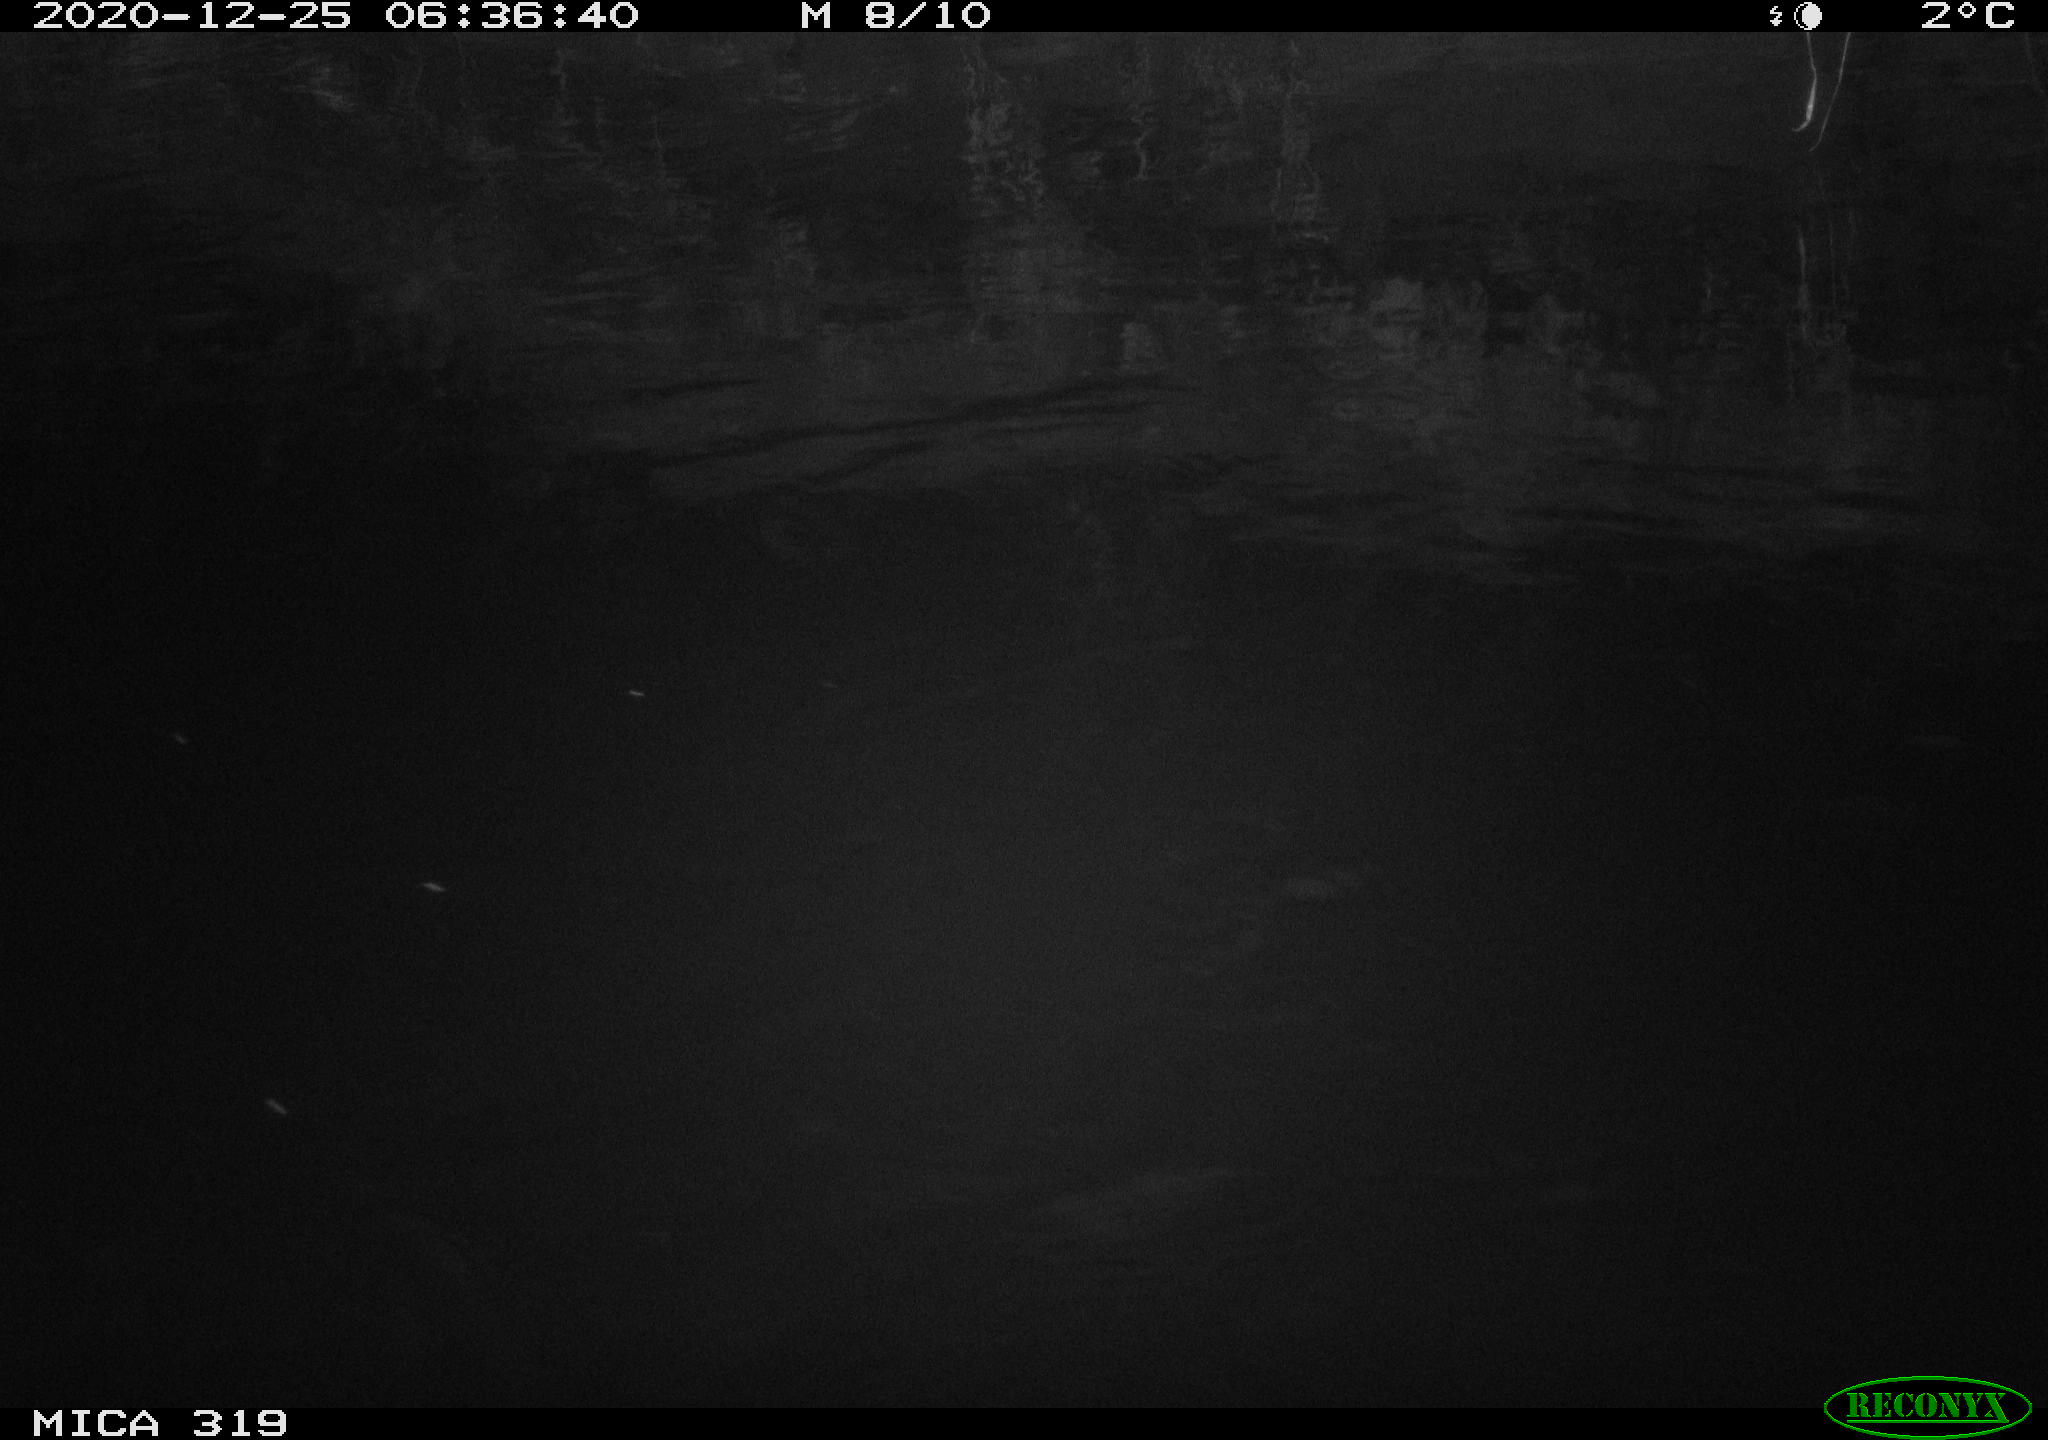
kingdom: Animalia
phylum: Chordata
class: Aves
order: Anseriformes
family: Anatidae
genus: Anas
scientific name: Anas platyrhynchos
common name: Mallard
